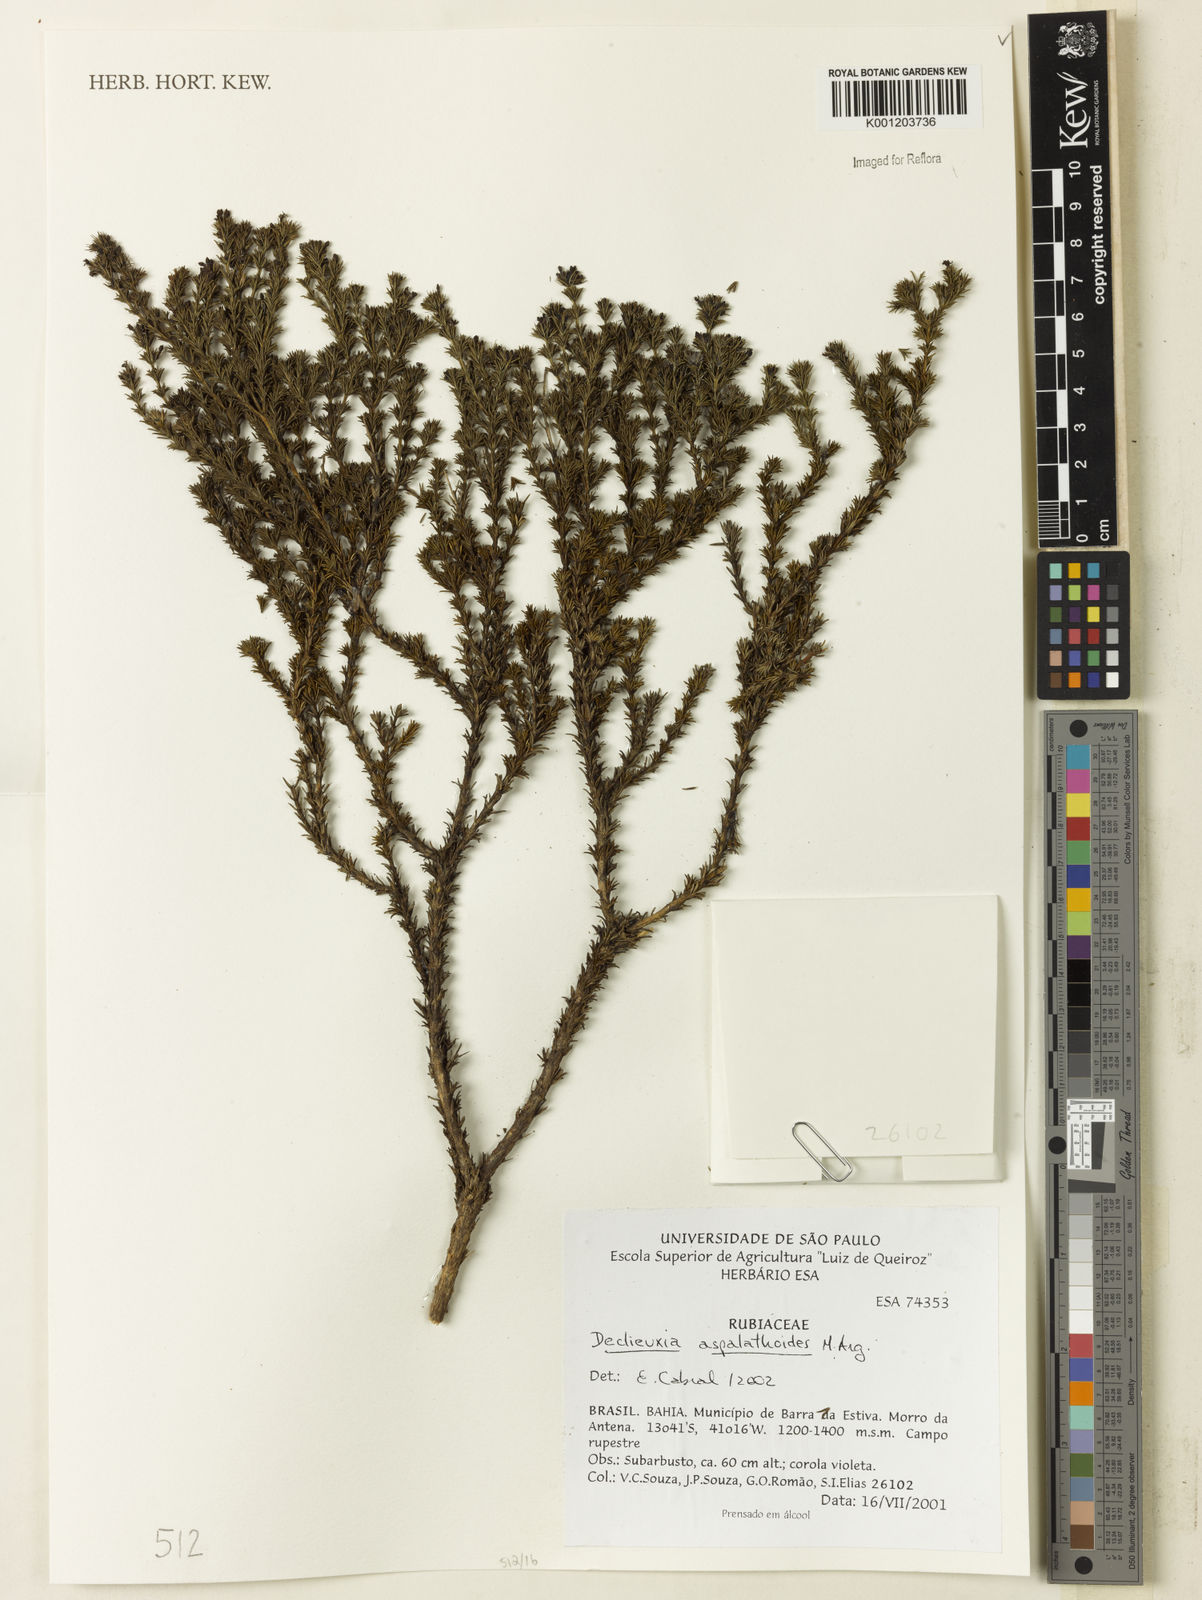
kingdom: Plantae
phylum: Tracheophyta
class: Magnoliopsida
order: Gentianales
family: Rubiaceae
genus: Declieuxia
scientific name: Declieuxia
